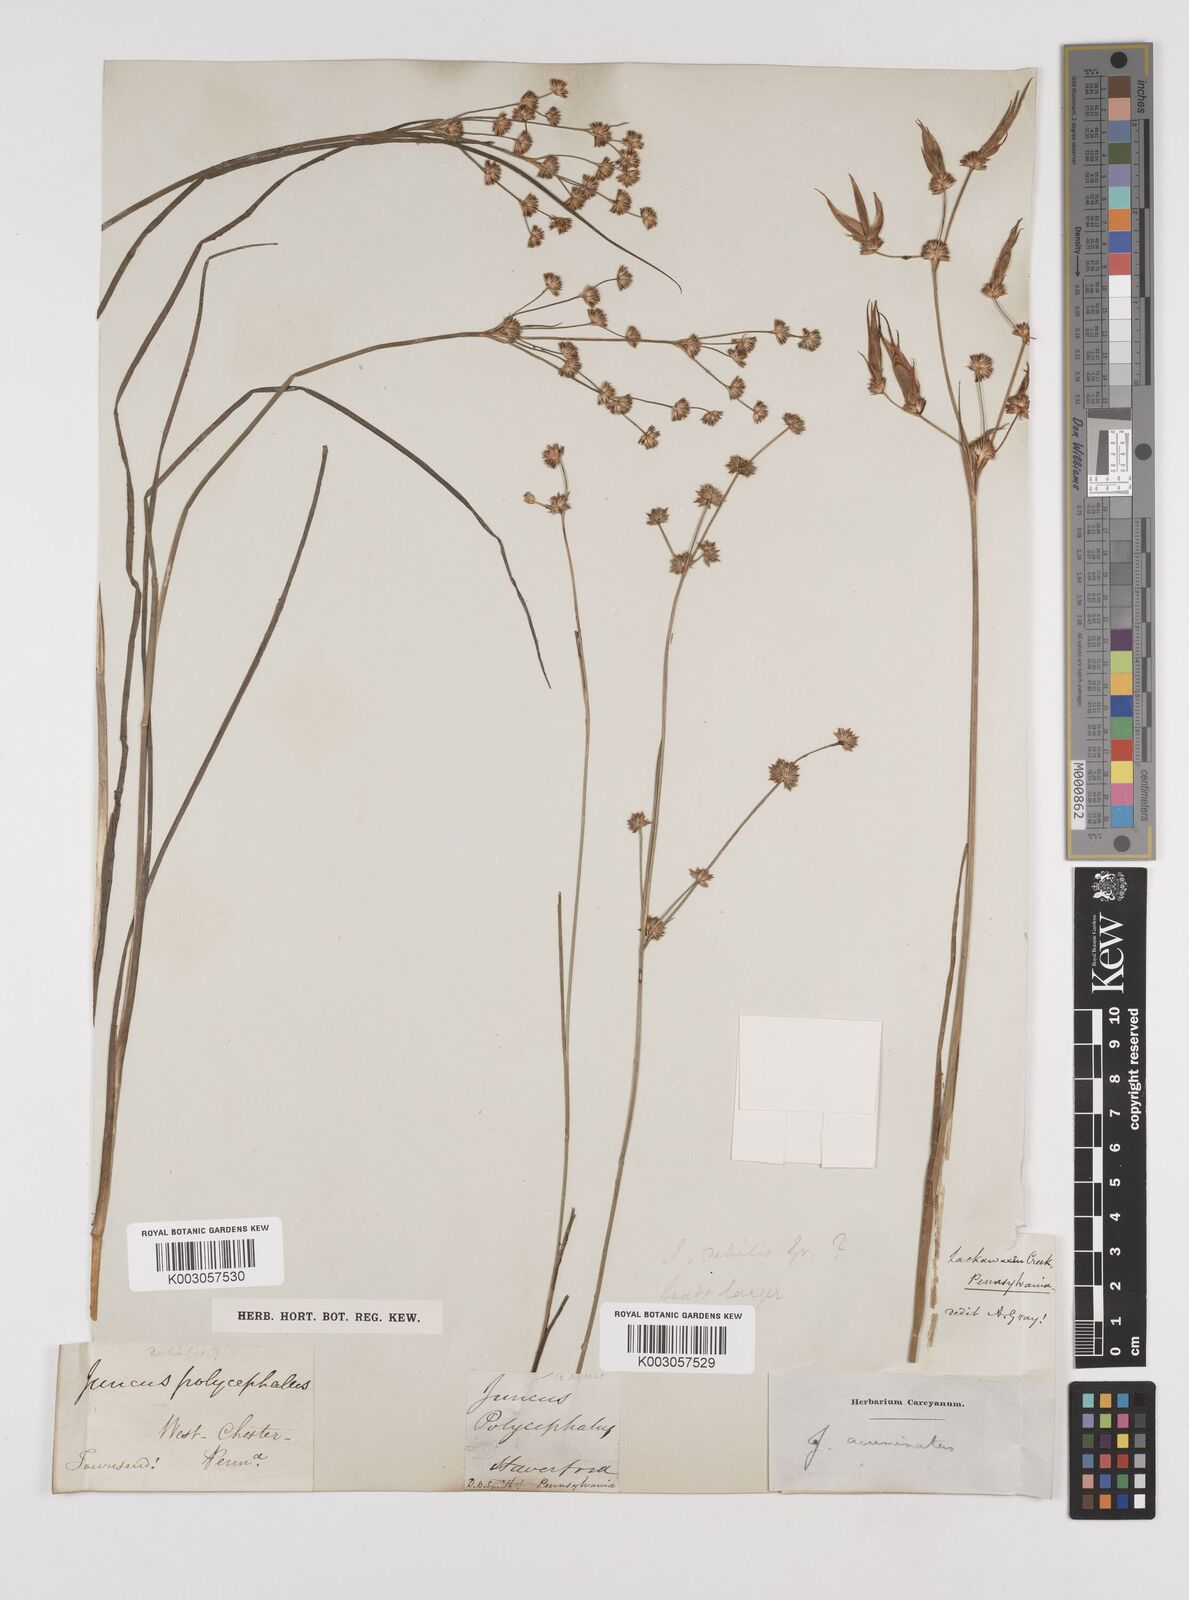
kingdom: Plantae
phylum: Tracheophyta
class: Liliopsida
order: Poales
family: Juncaceae
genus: Juncus
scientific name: Juncus acuminatus
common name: Knotty-leaved rush
